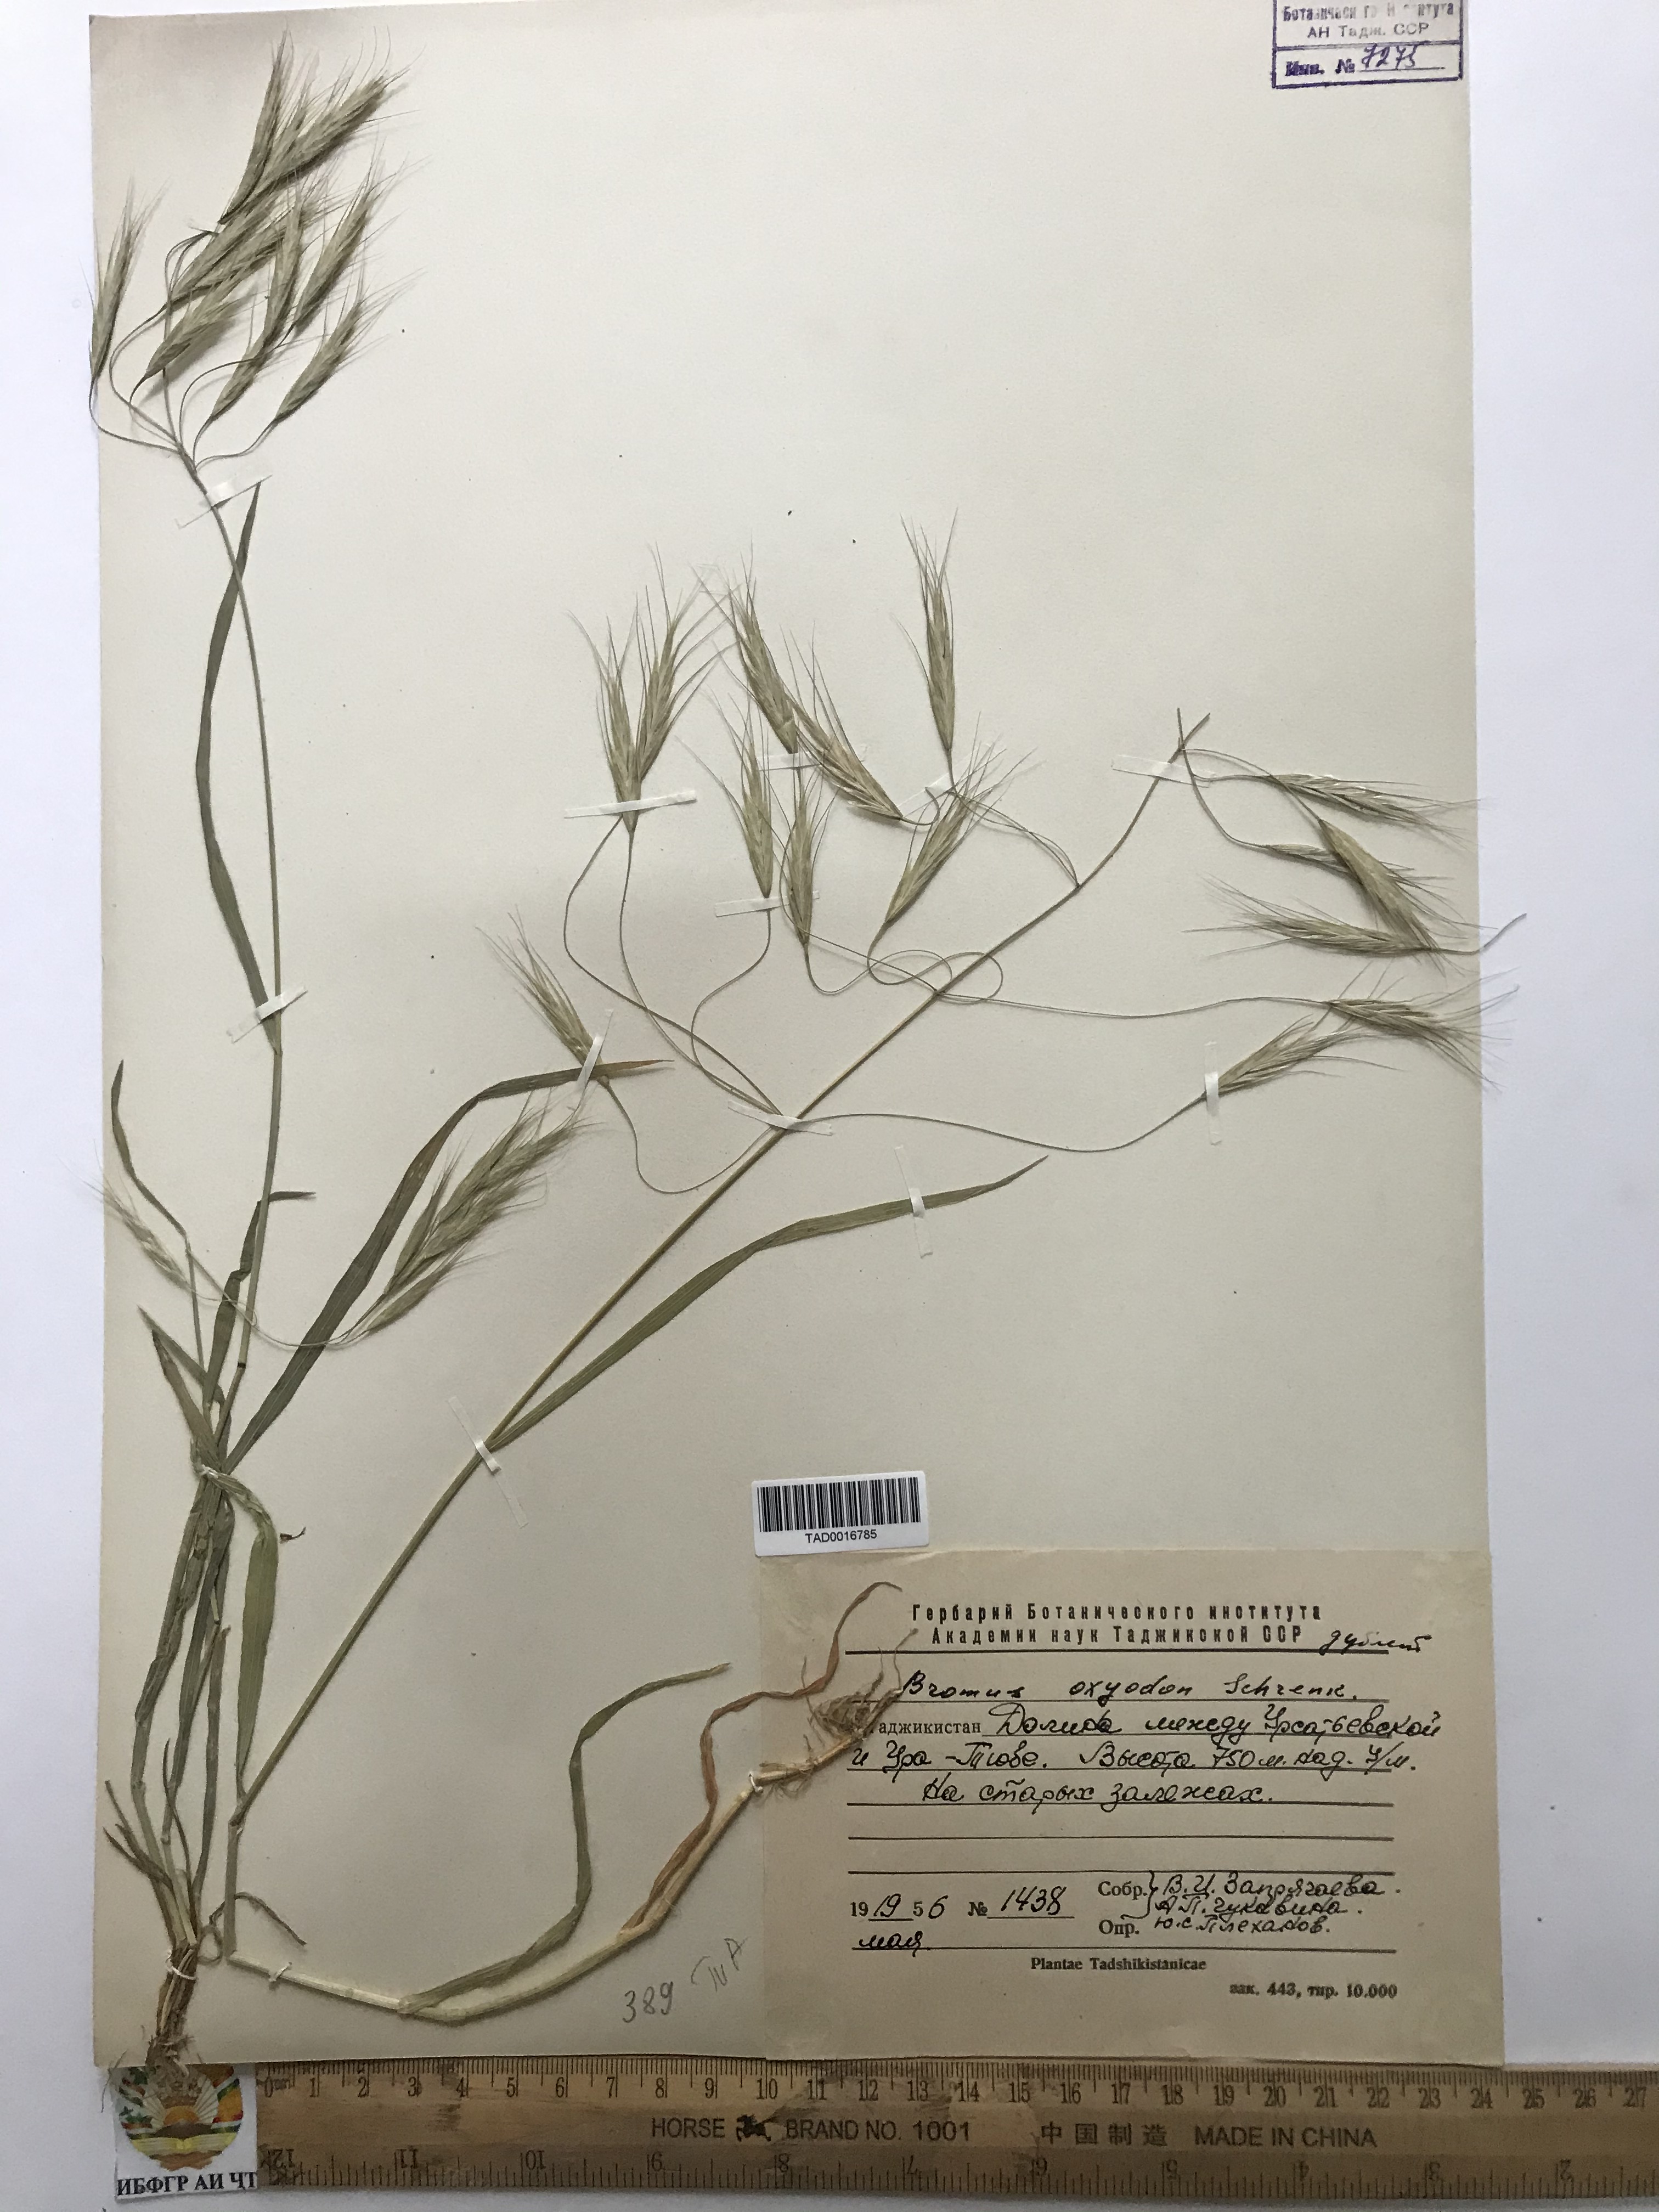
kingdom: Plantae
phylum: Tracheophyta
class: Liliopsida
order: Poales
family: Poaceae
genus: Bromus
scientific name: Bromus oxyodon
